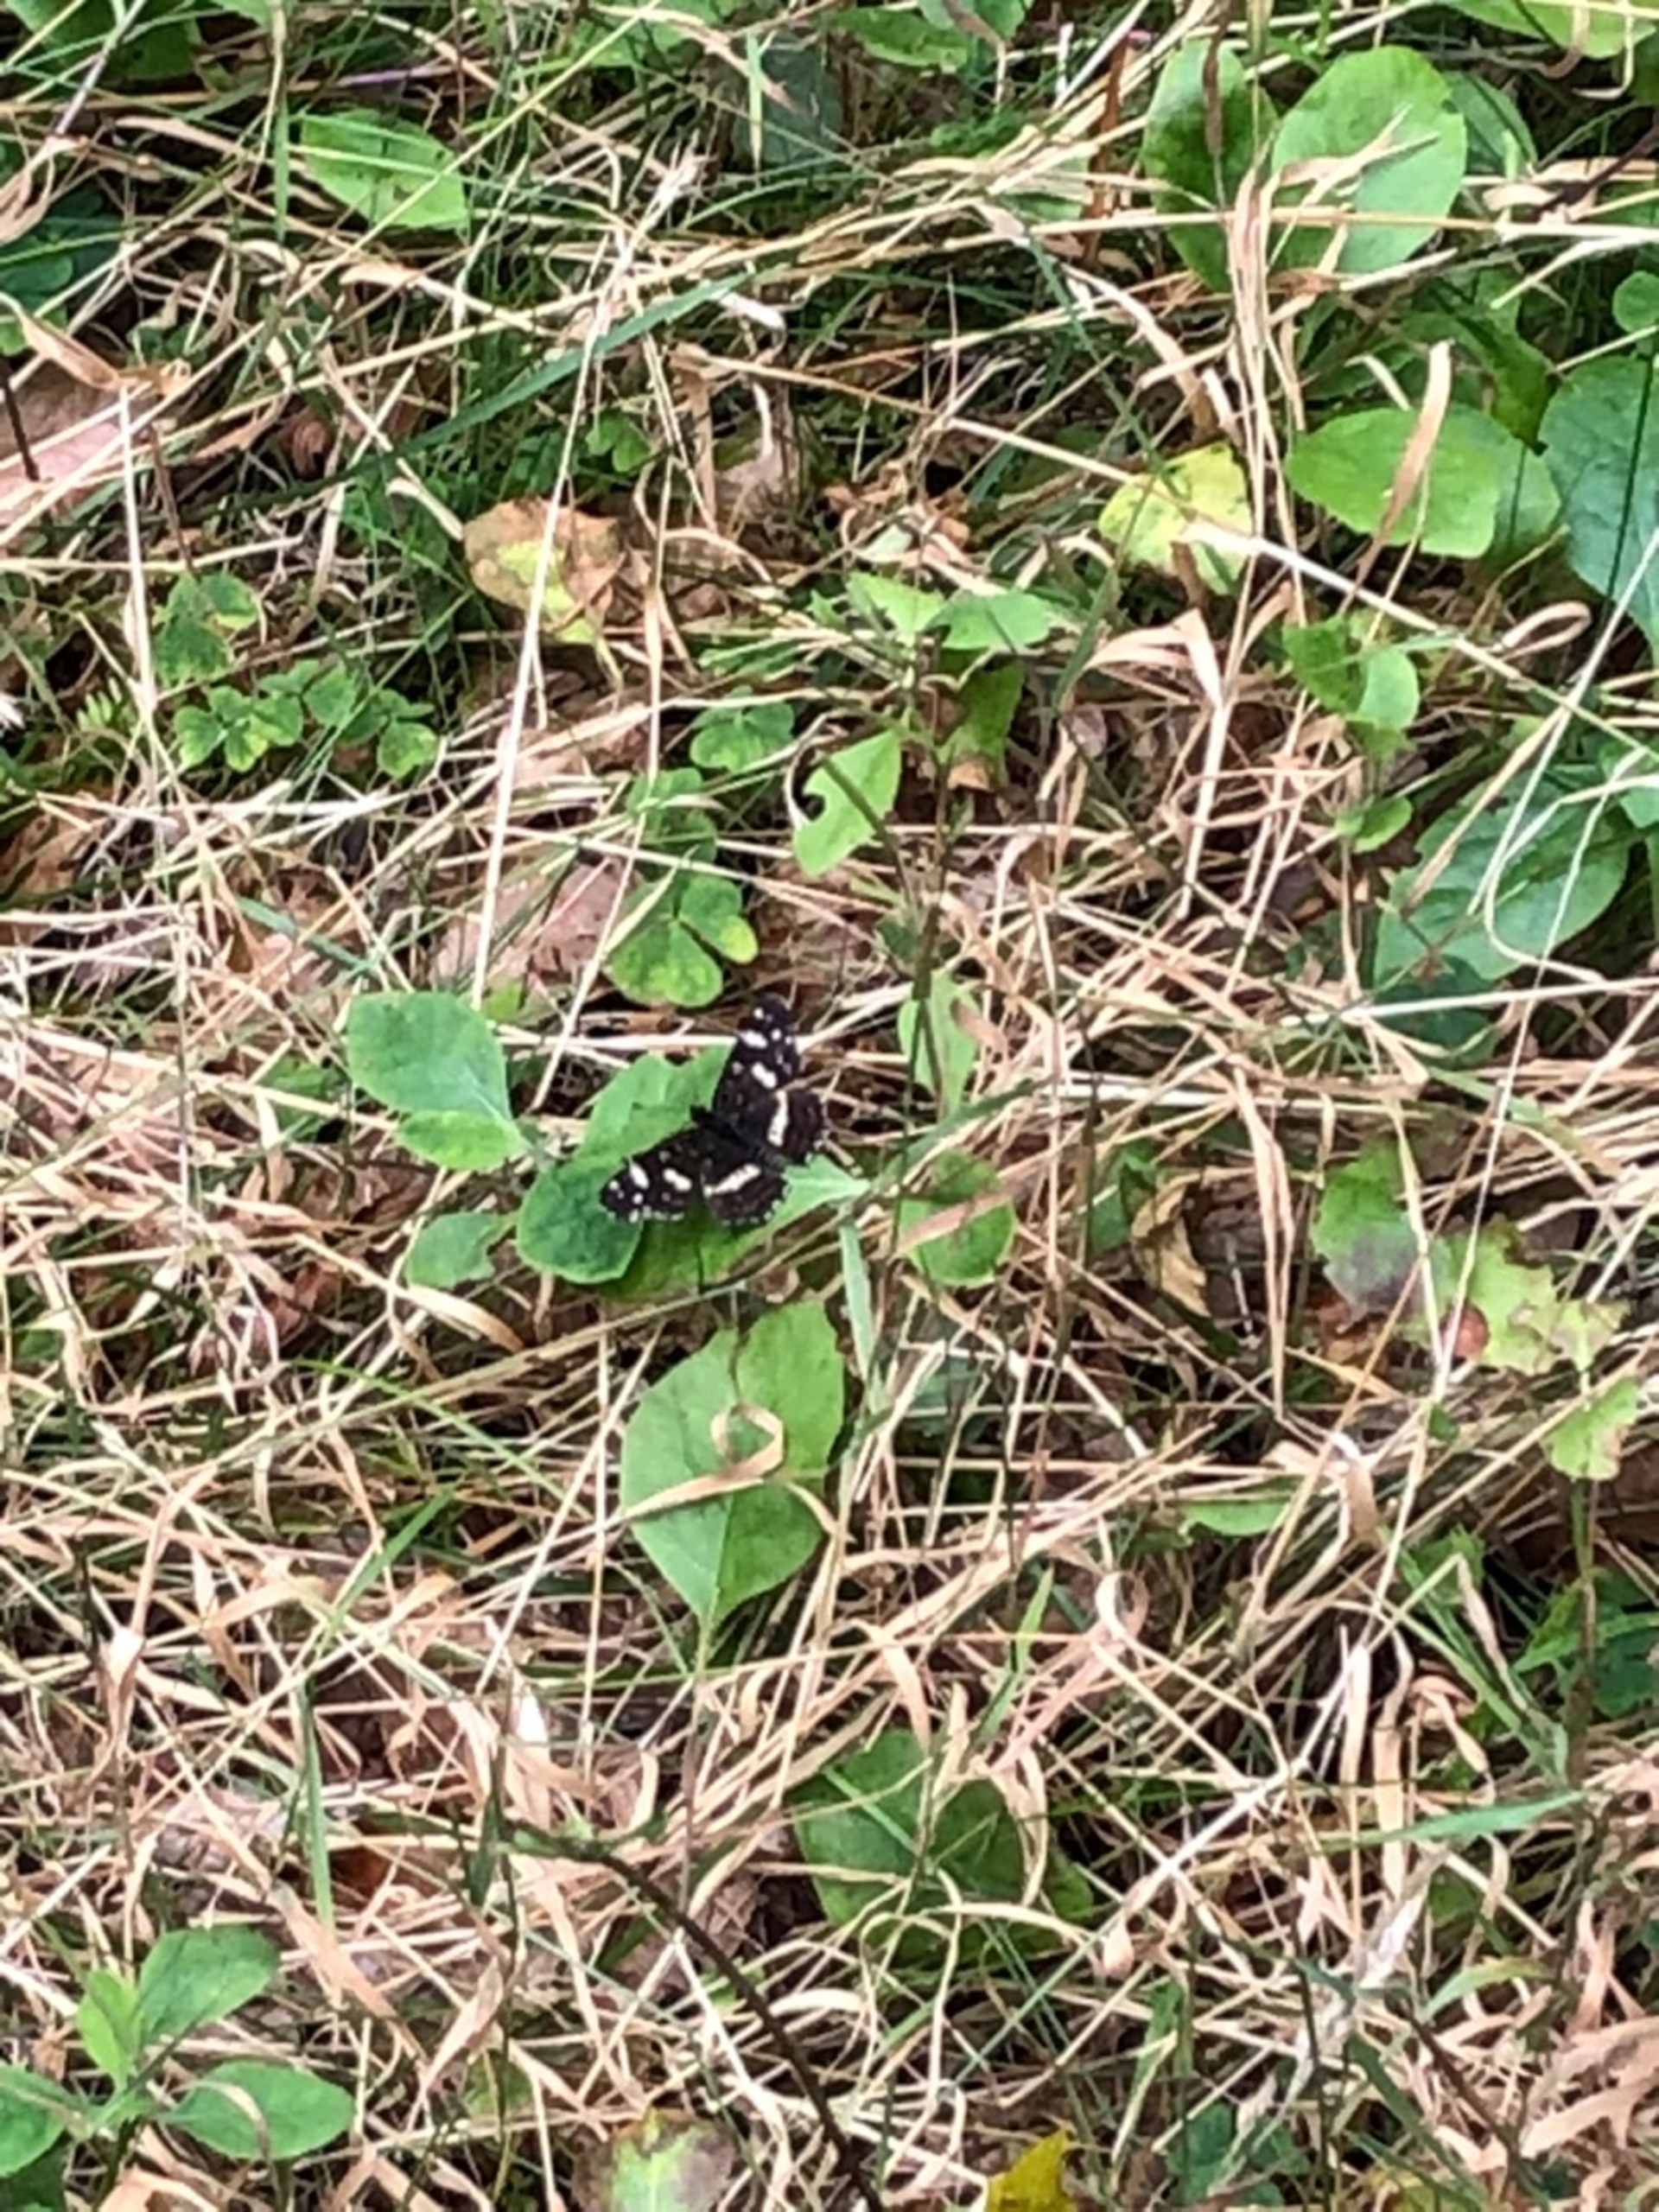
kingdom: Animalia
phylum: Arthropoda
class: Insecta
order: Lepidoptera
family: Nymphalidae
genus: Araschnia
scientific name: Araschnia levana
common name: Nældesommerfugl
